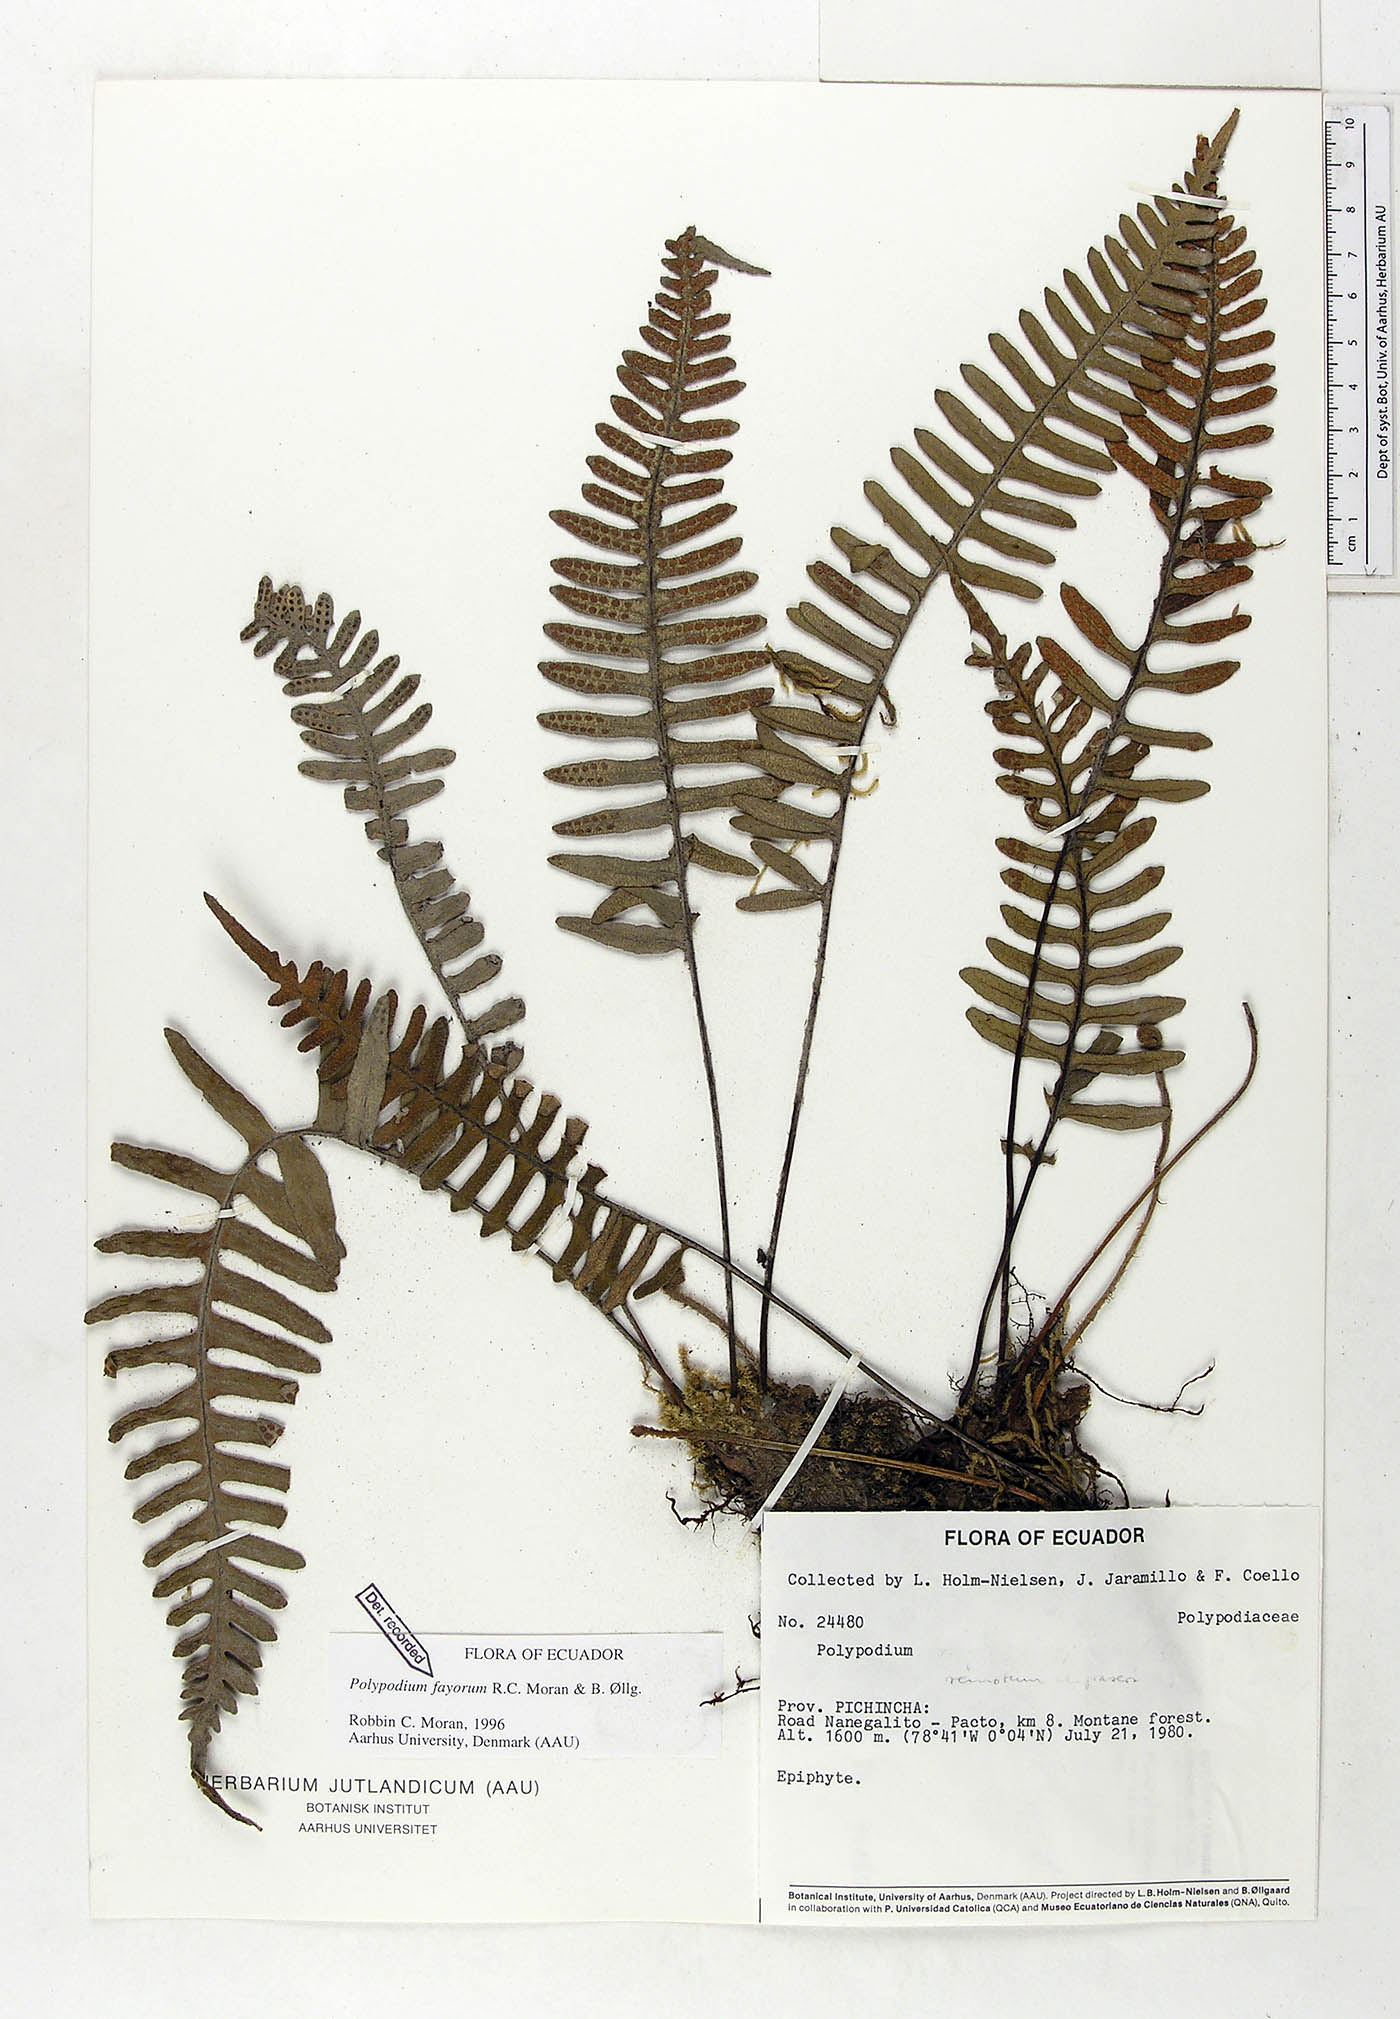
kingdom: Plantae
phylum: Tracheophyta
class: Polypodiopsida
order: Polypodiales
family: Polypodiaceae
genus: Pleopeltis
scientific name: Pleopeltis fayorum
